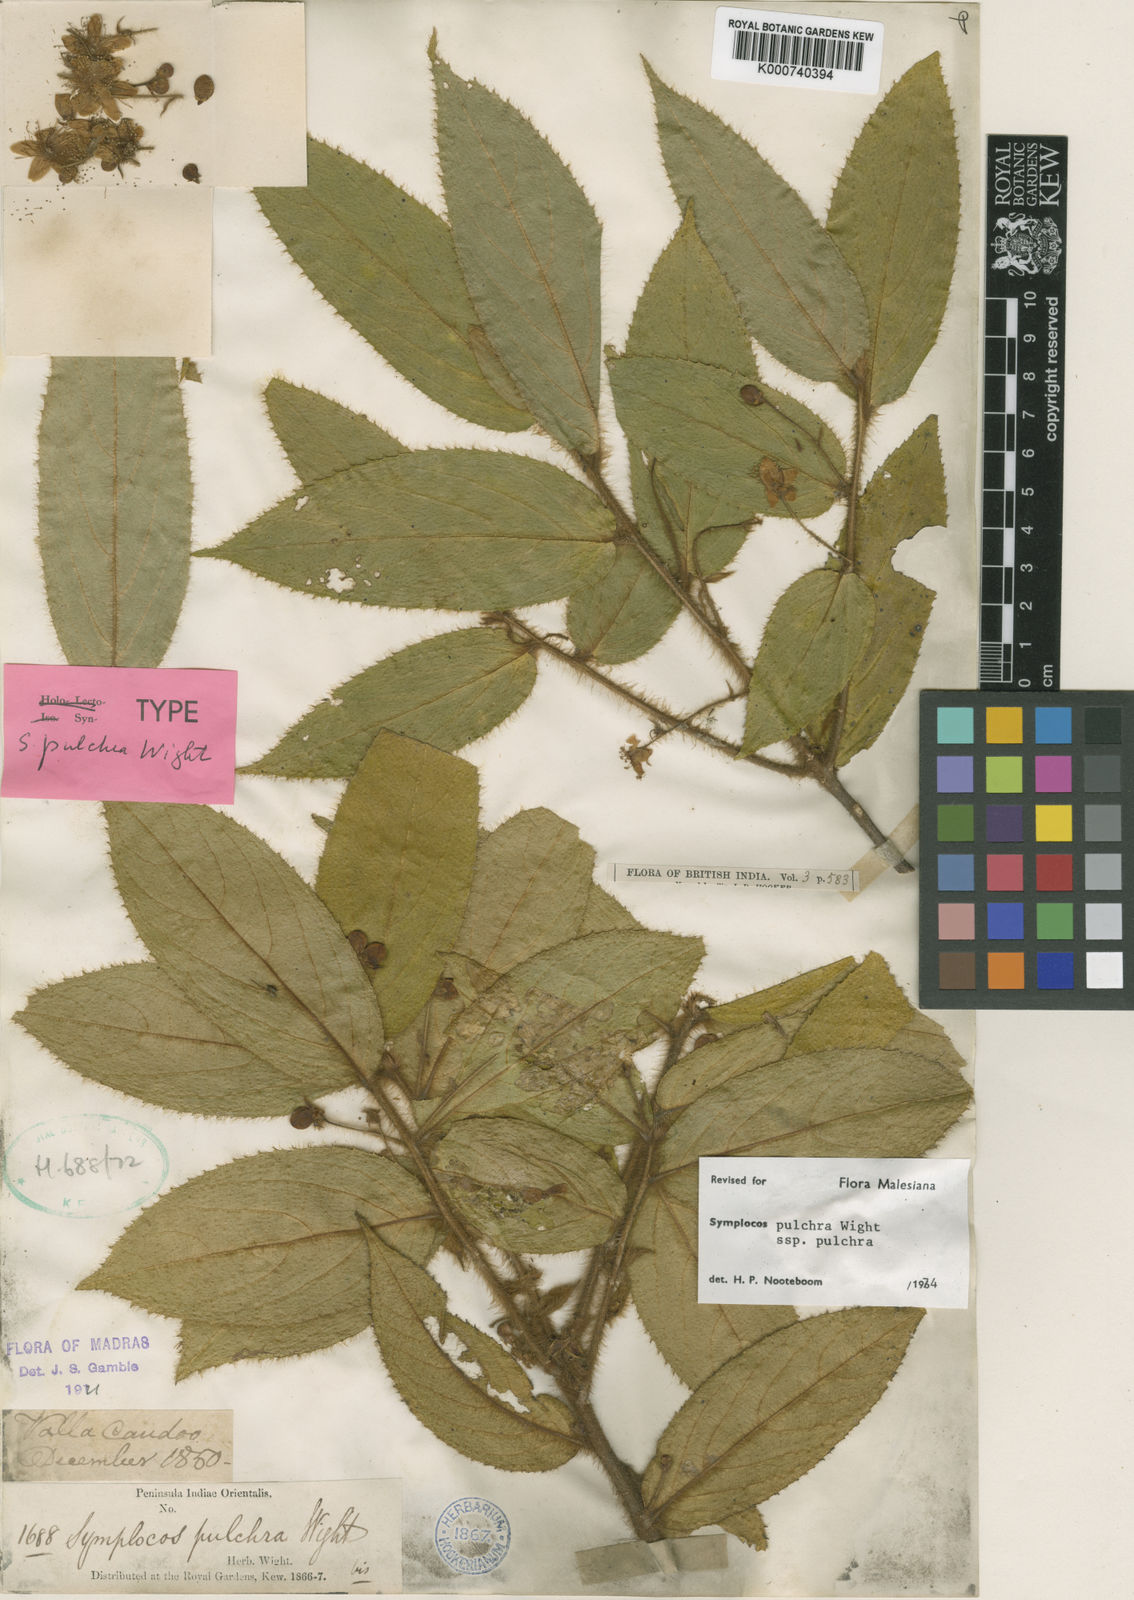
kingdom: Plantae
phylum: Tracheophyta
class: Magnoliopsida
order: Ericales
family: Symplocaceae
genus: Symplocos
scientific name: Symplocos pulchra
